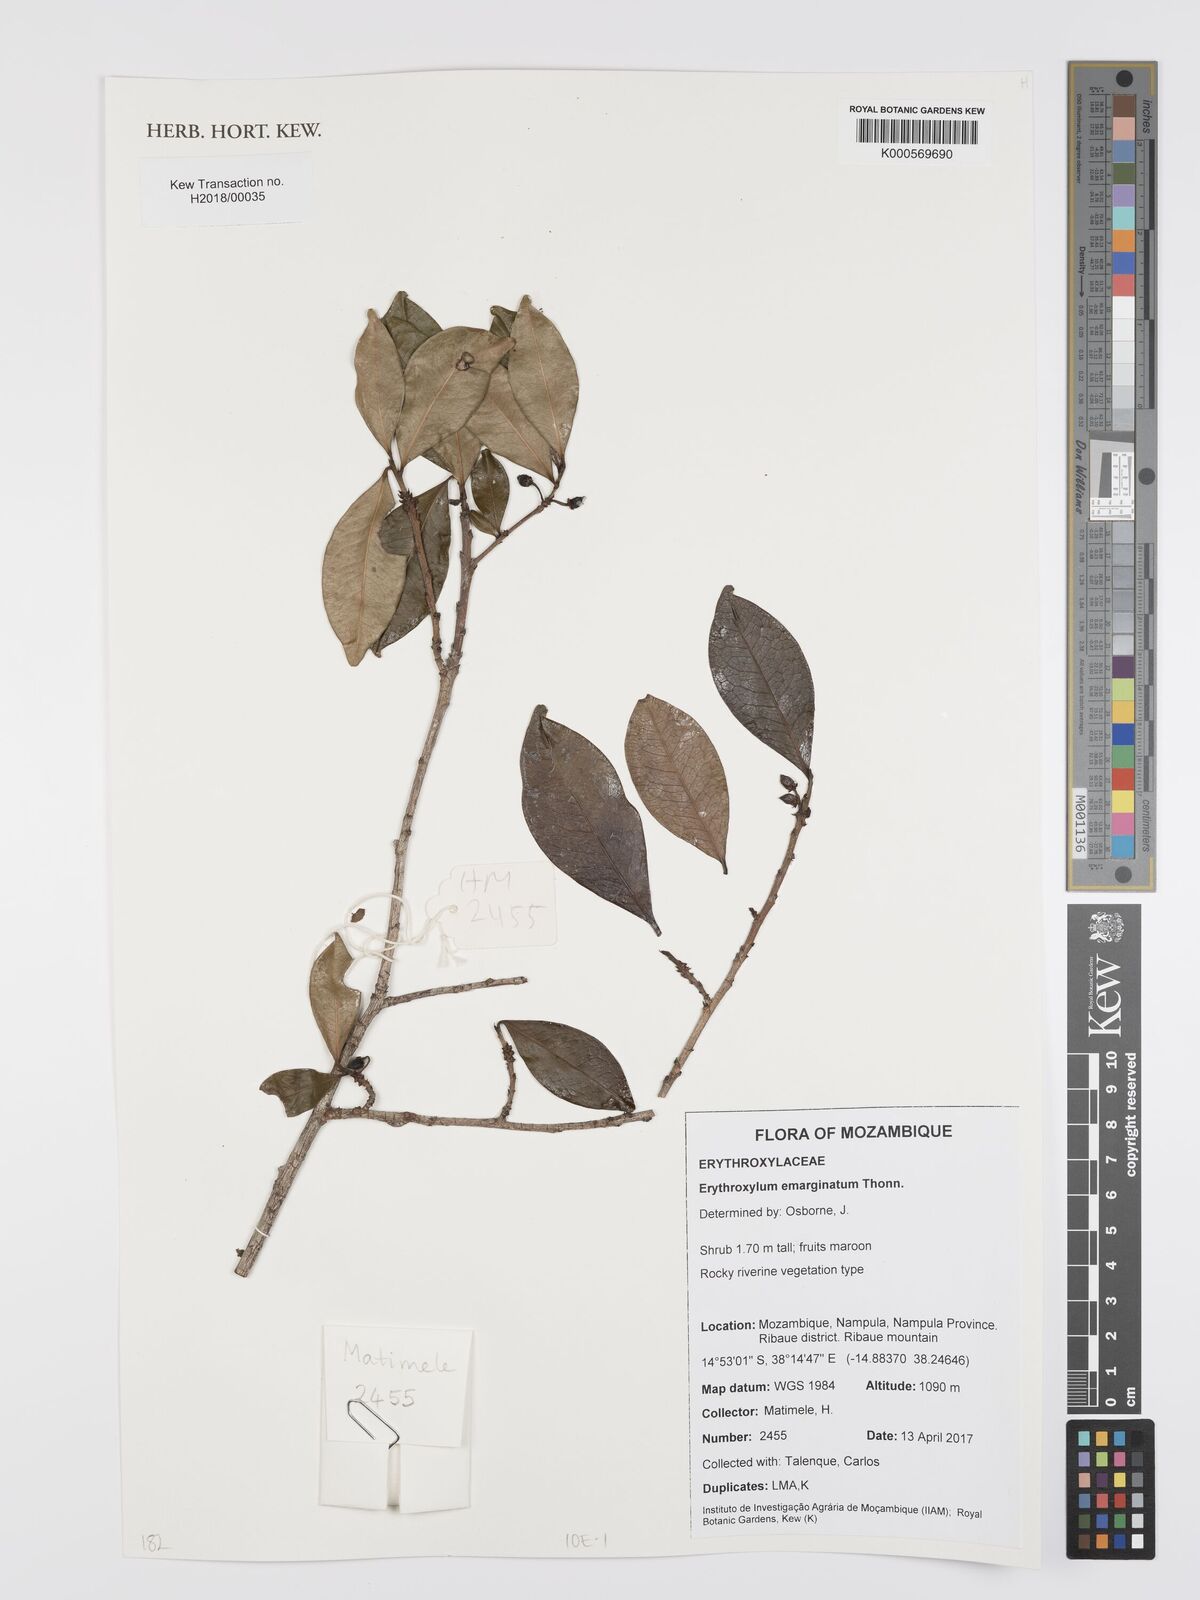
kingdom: Plantae
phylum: Tracheophyta
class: Magnoliopsida
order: Malpighiales
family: Erythroxylaceae
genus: Erythroxylum
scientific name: Erythroxylum emarginatum
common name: African coca-tree
